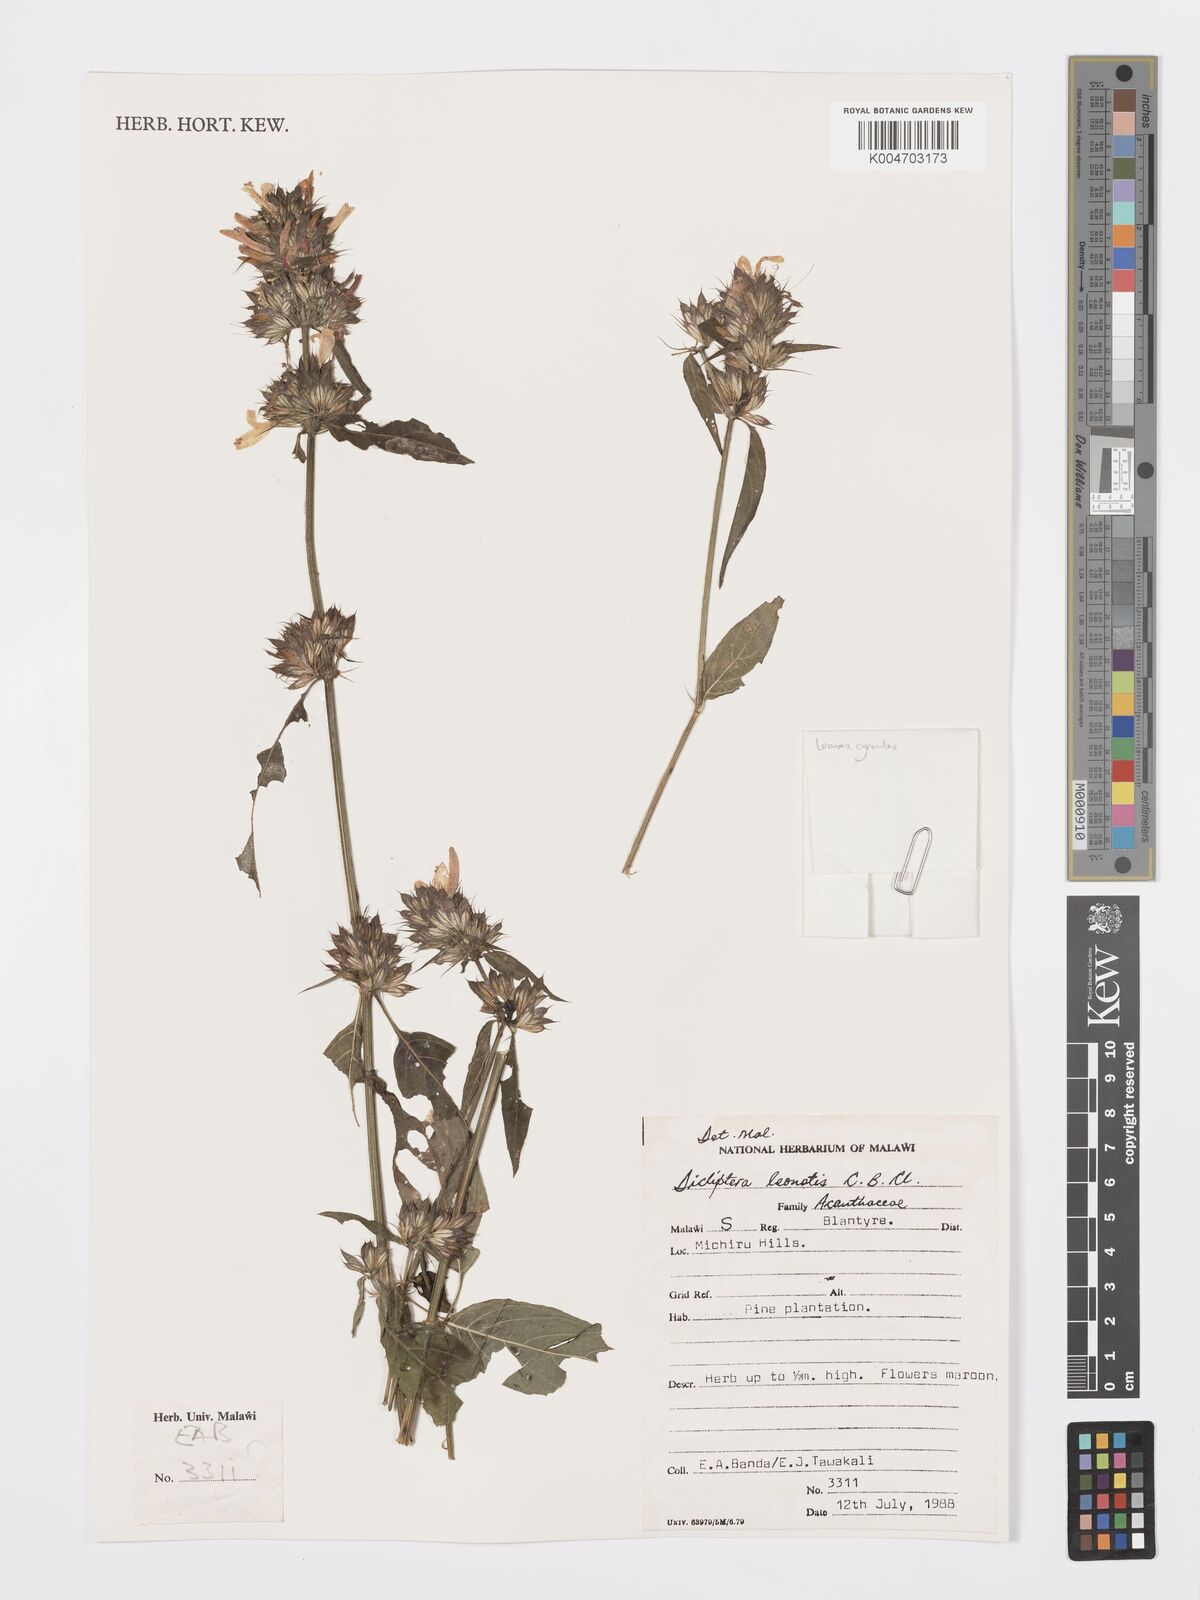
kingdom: Plantae
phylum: Tracheophyta
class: Magnoliopsida
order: Lamiales
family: Acanthaceae
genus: Dicliptera
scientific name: Dicliptera clinopodia
